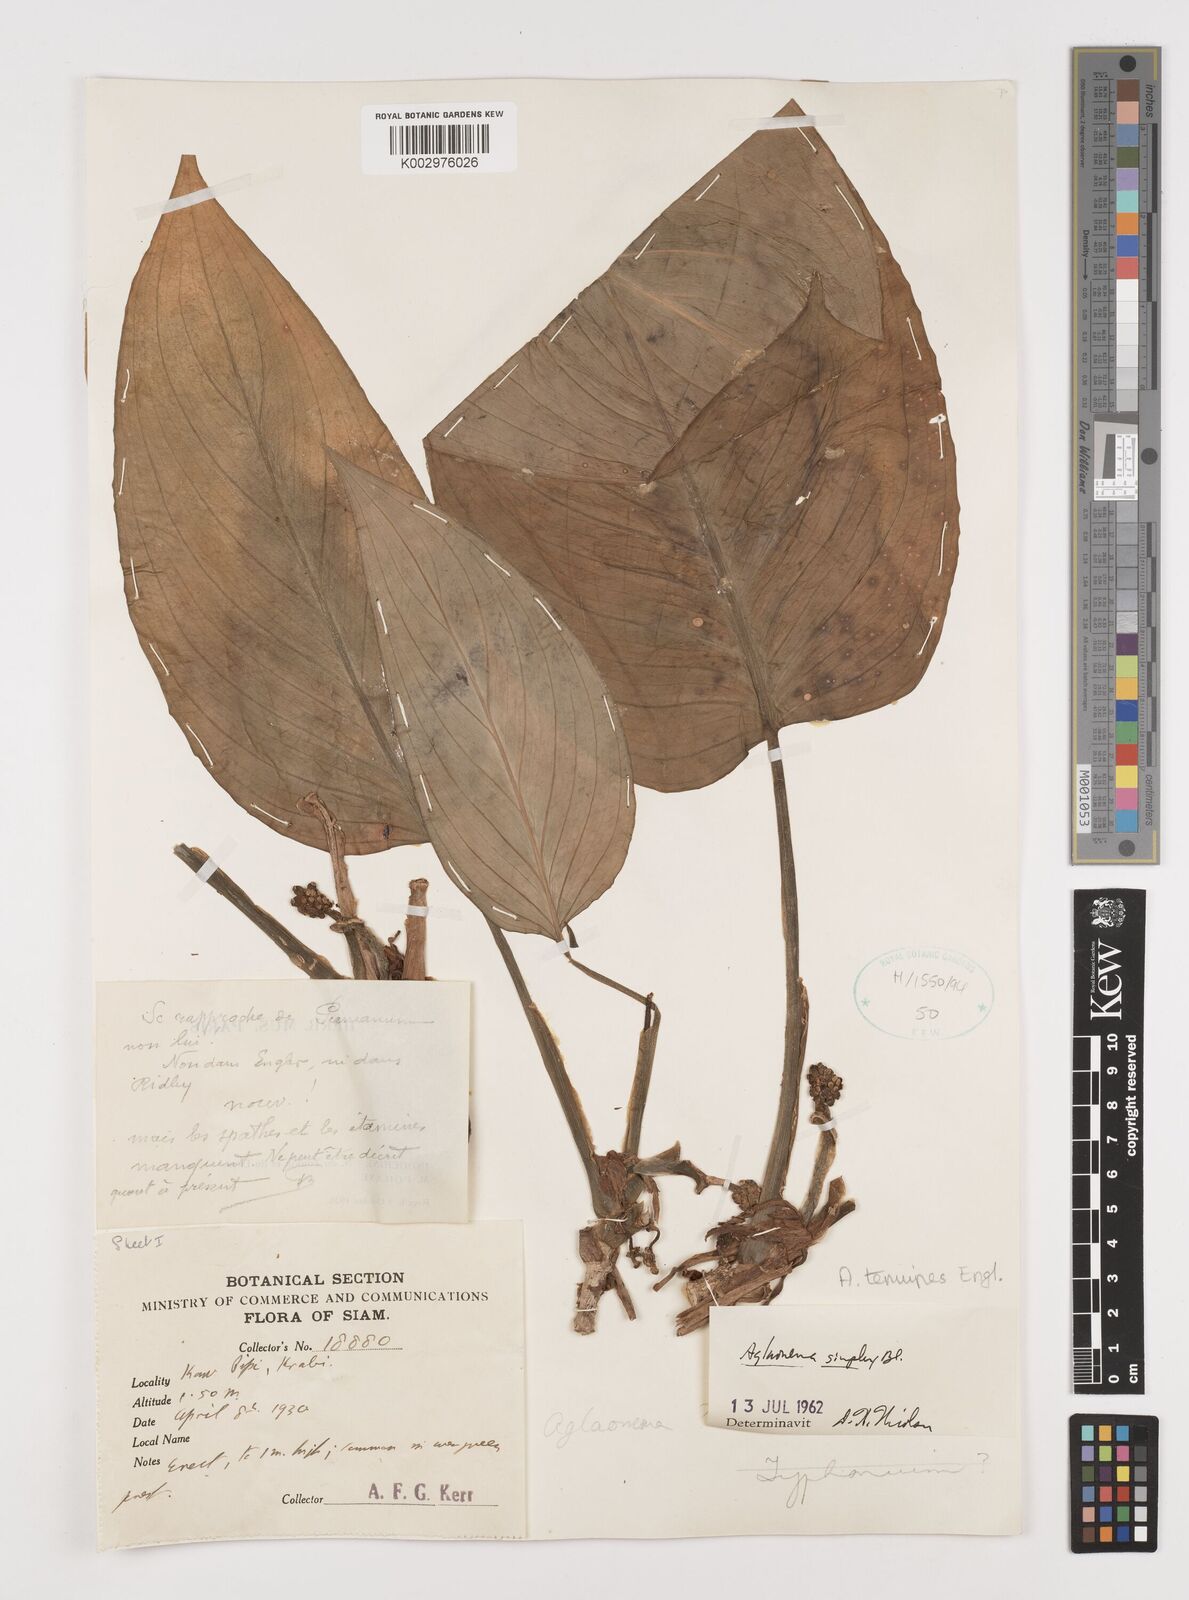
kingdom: Plantae
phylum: Tracheophyta
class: Liliopsida
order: Alismatales
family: Araceae
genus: Aglaonema
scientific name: Aglaonema simplex
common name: Malayan-sword
